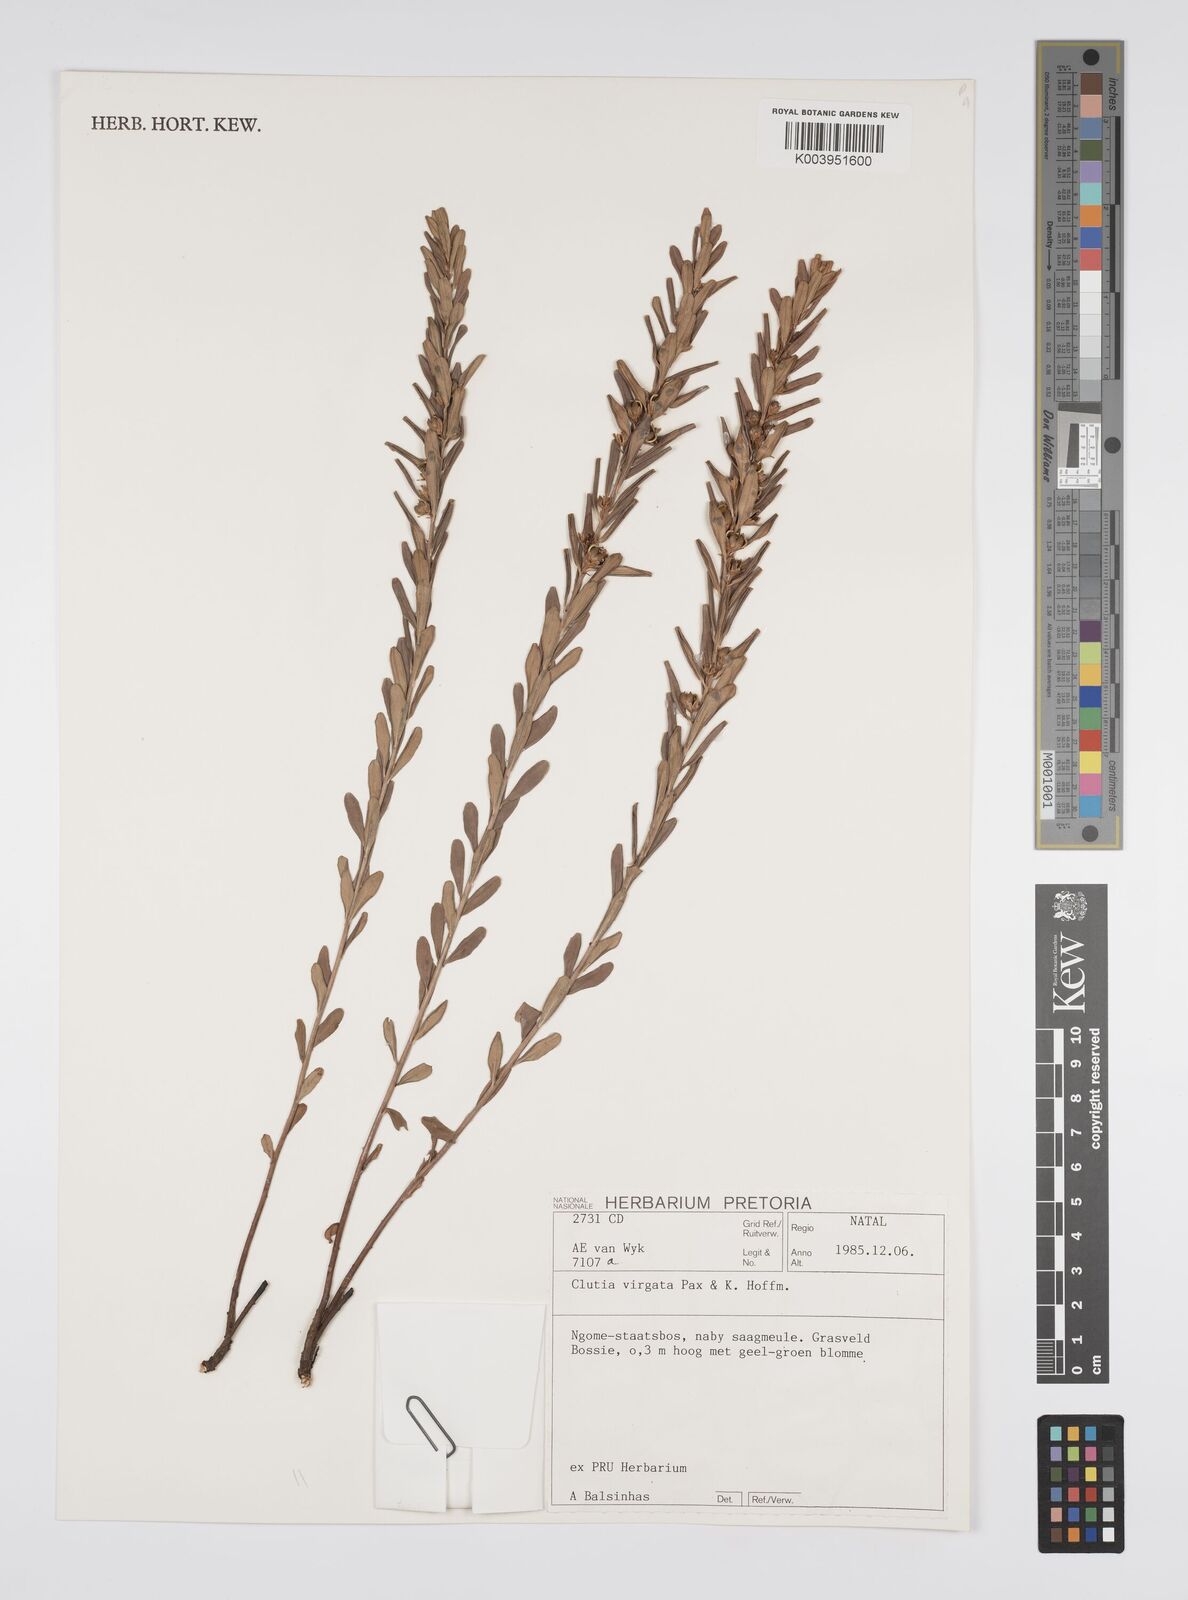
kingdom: Plantae
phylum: Tracheophyta
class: Magnoliopsida
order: Malpighiales
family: Peraceae
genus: Clutia
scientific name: Clutia virgata
